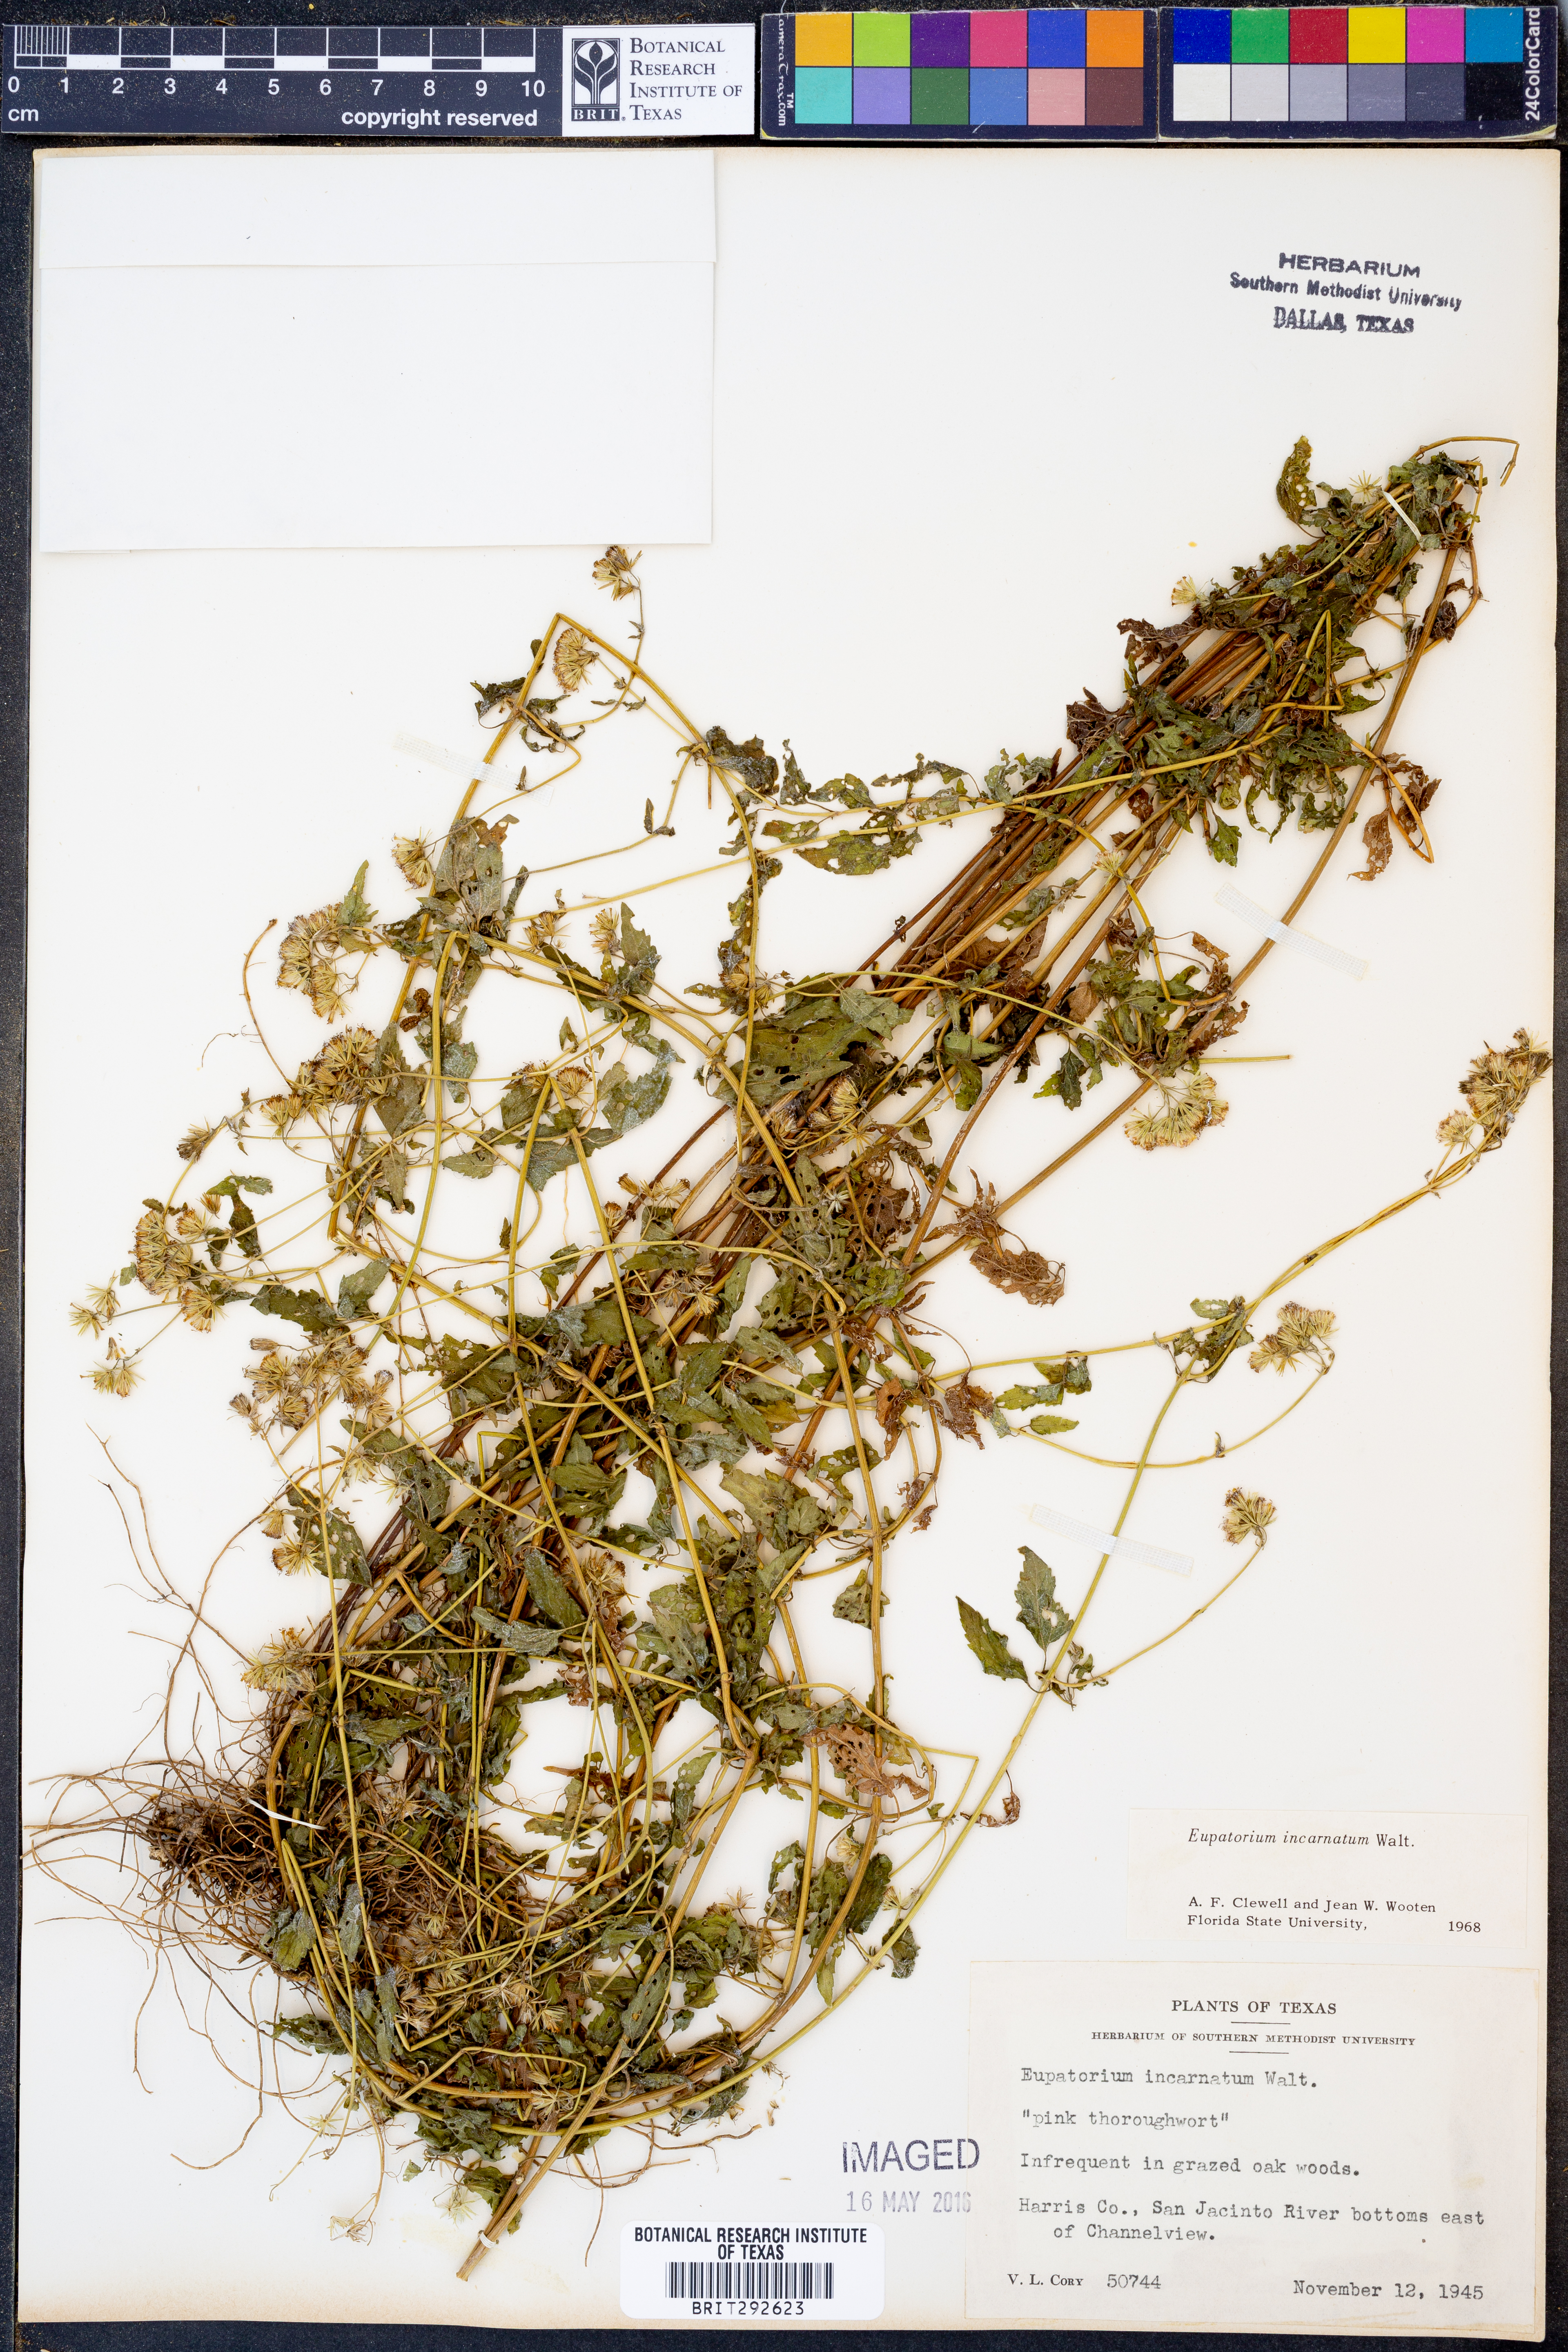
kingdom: Plantae
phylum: Tracheophyta
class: Magnoliopsida
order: Asterales
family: Asteraceae
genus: Fleischmannia
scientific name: Fleischmannia incarnata
